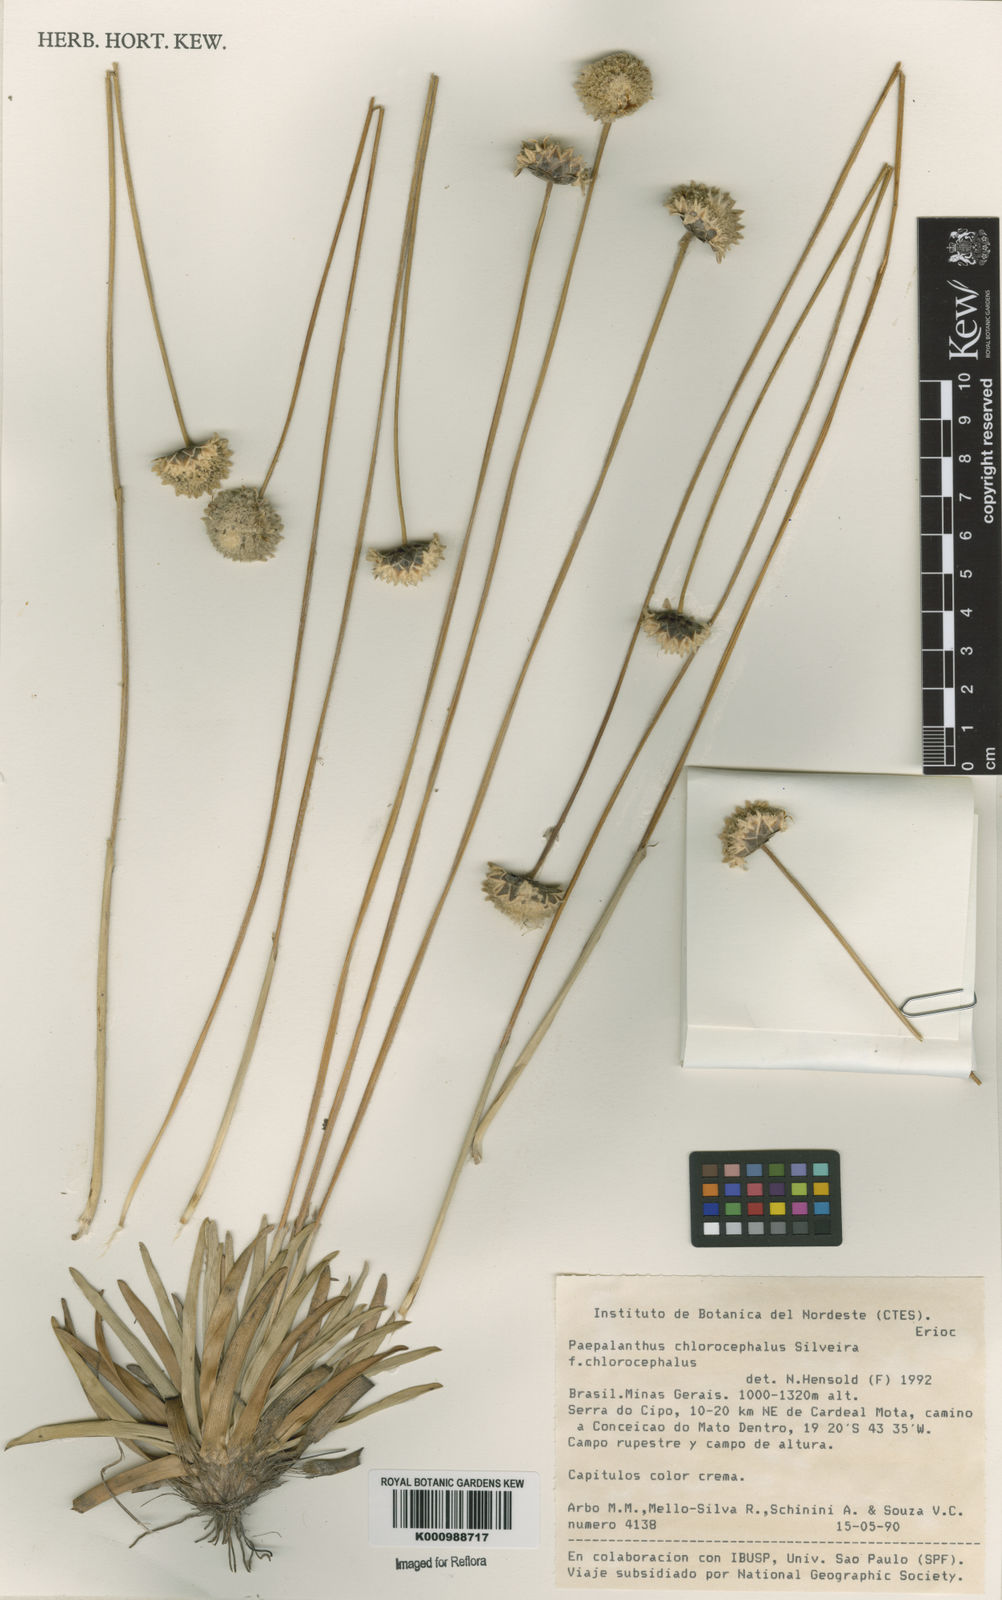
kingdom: Plantae
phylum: Tracheophyta
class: Liliopsida
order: Poales
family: Eriocaulaceae
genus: Paepalanthus
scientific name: Paepalanthus chlorocephalus
